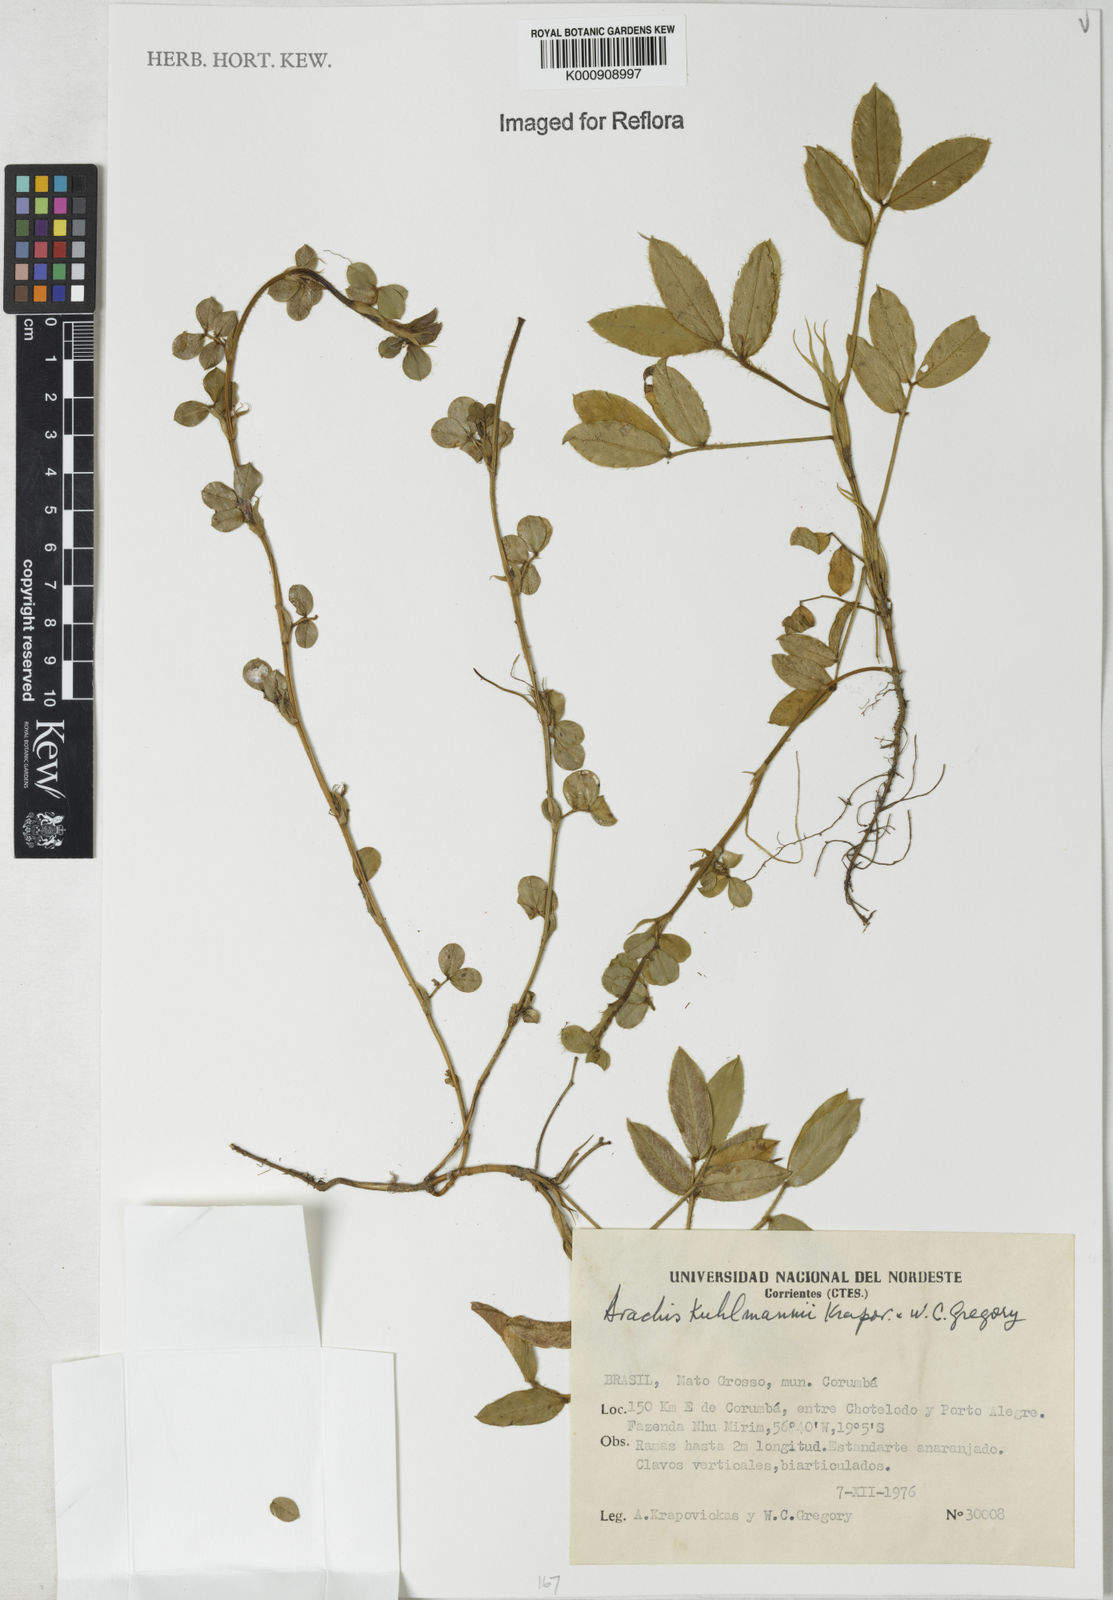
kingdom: Plantae
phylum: Tracheophyta
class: Magnoliopsida
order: Fabales
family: Fabaceae
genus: Arachis
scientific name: Arachis kuhlmannii
